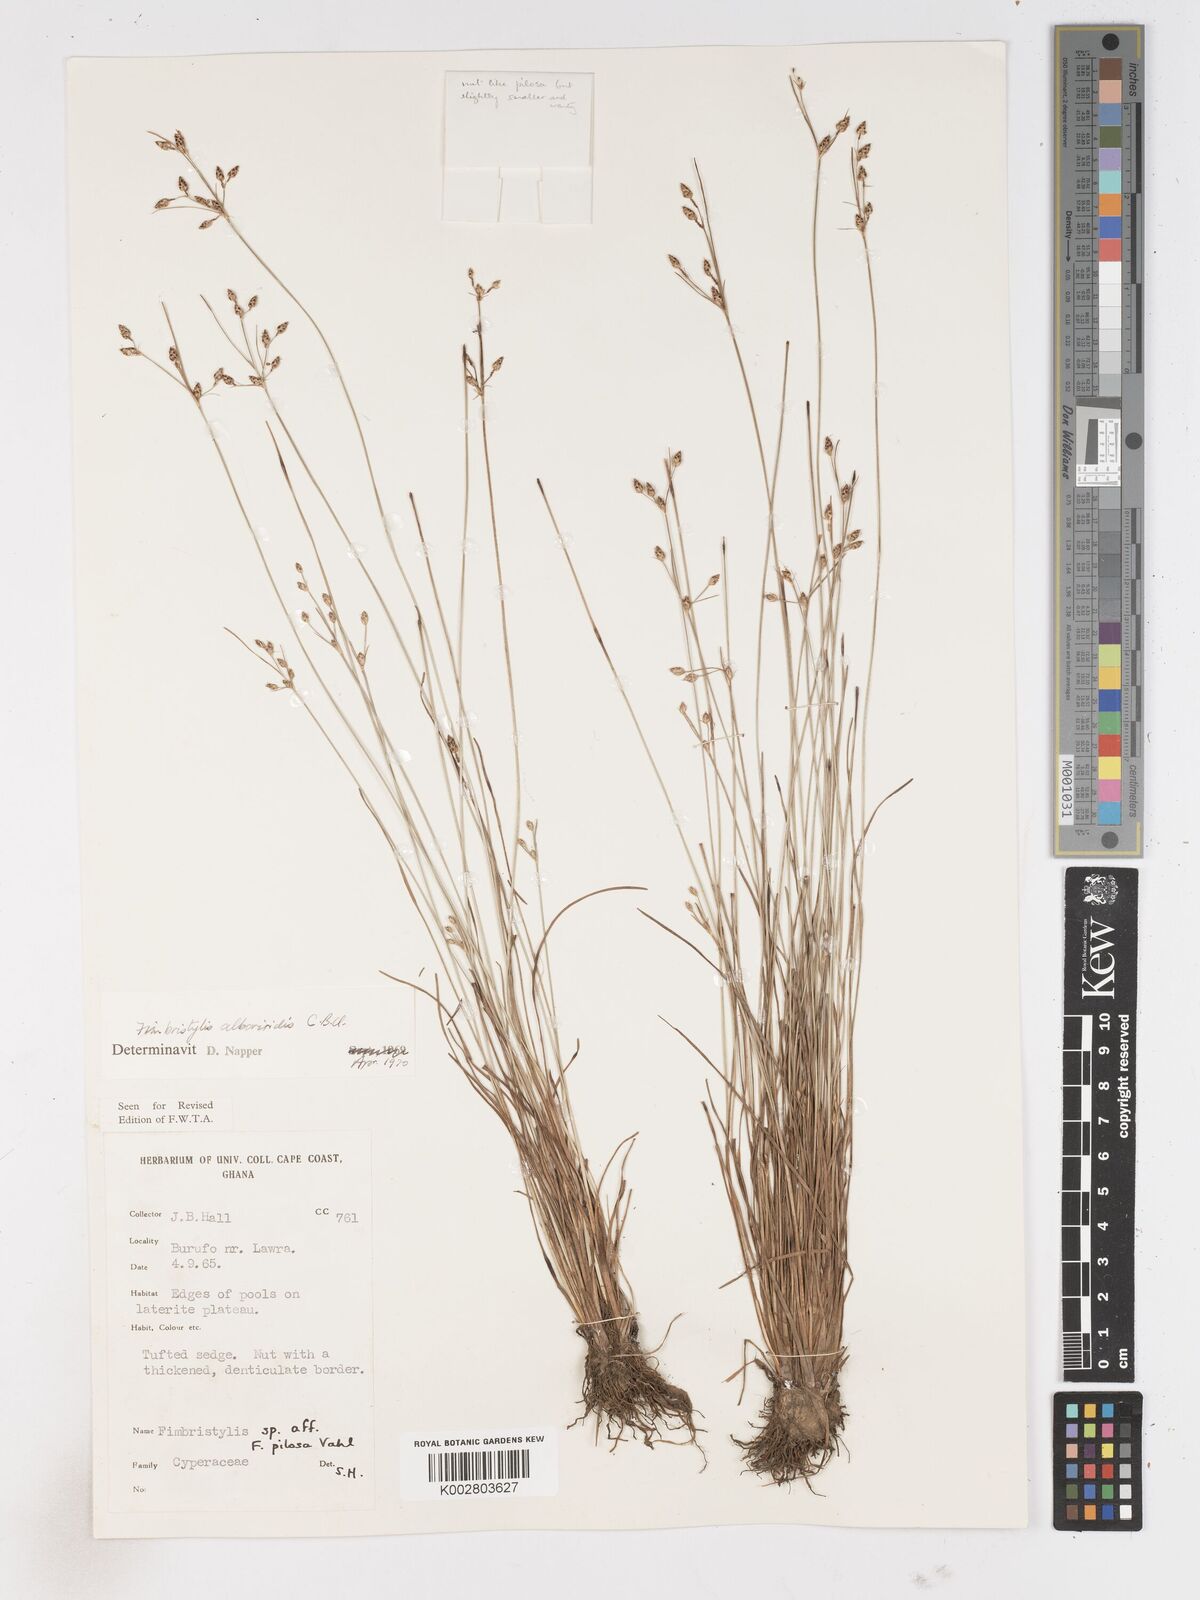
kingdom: Plantae
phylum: Tracheophyta
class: Liliopsida
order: Poales
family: Cyperaceae
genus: Fimbristylis
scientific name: Fimbristylis alboviridis
